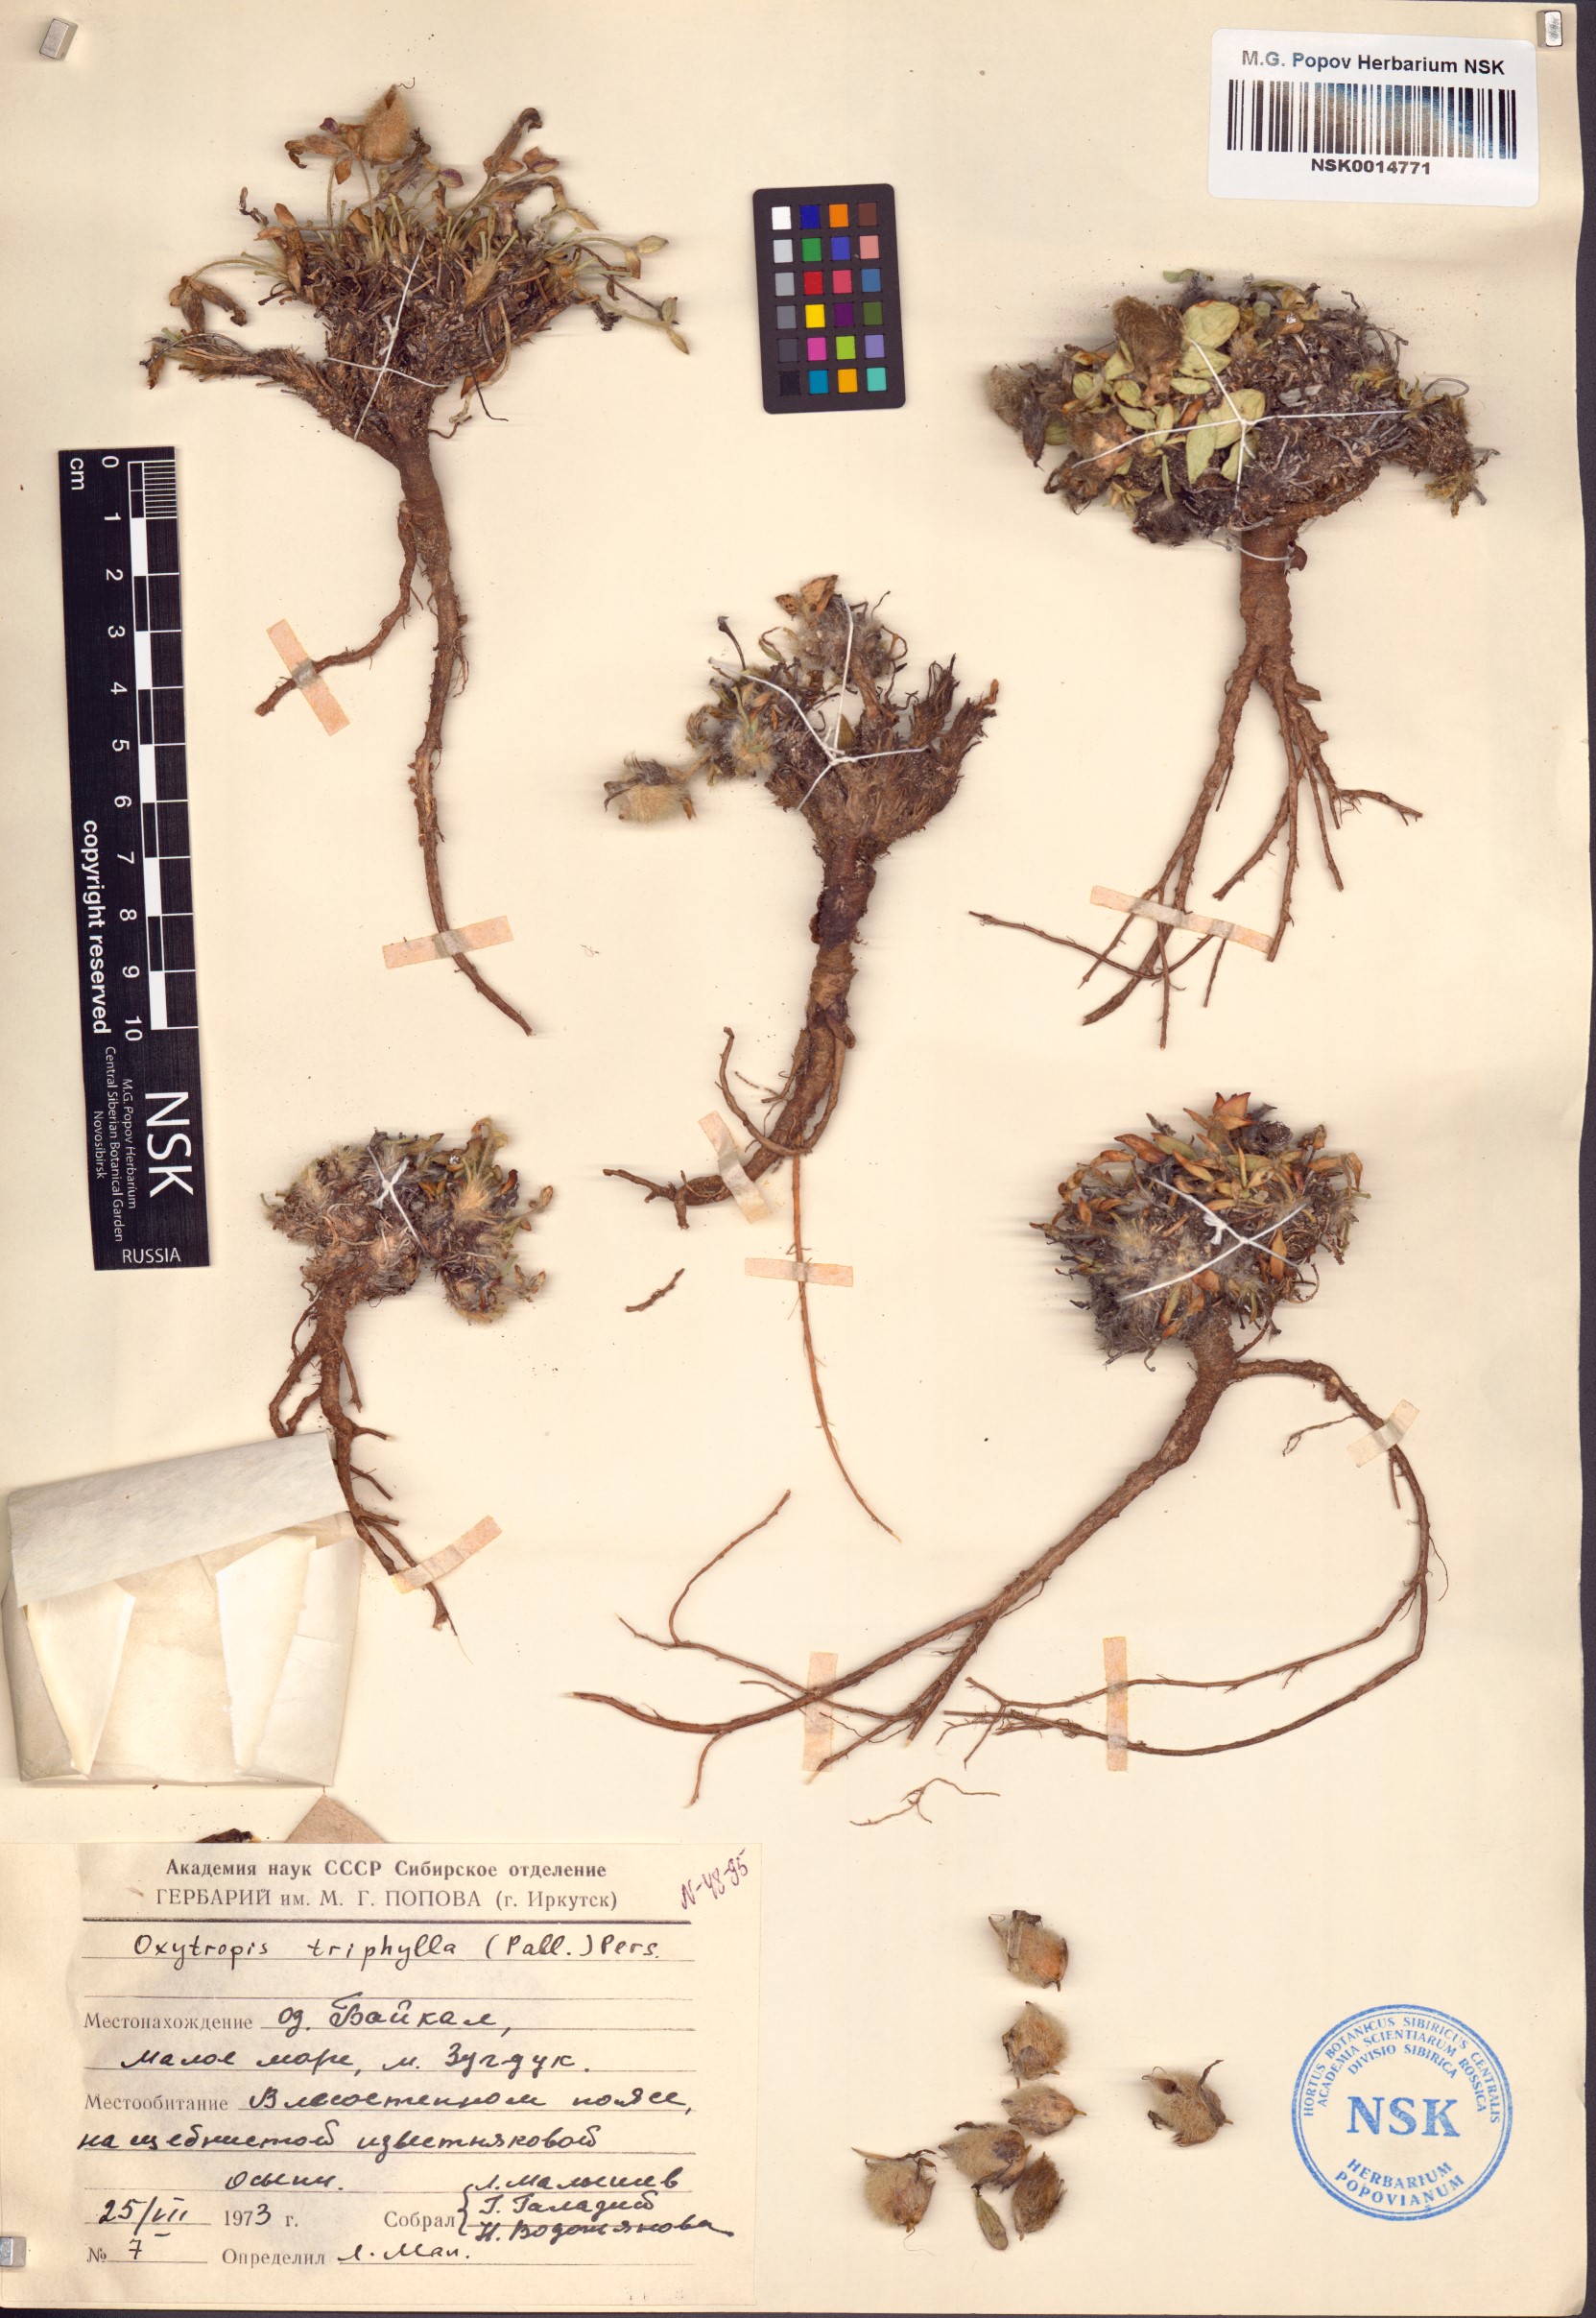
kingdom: Plantae
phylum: Tracheophyta
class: Magnoliopsida
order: Fabales
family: Fabaceae
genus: Oxytropis
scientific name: Oxytropis triphylla
